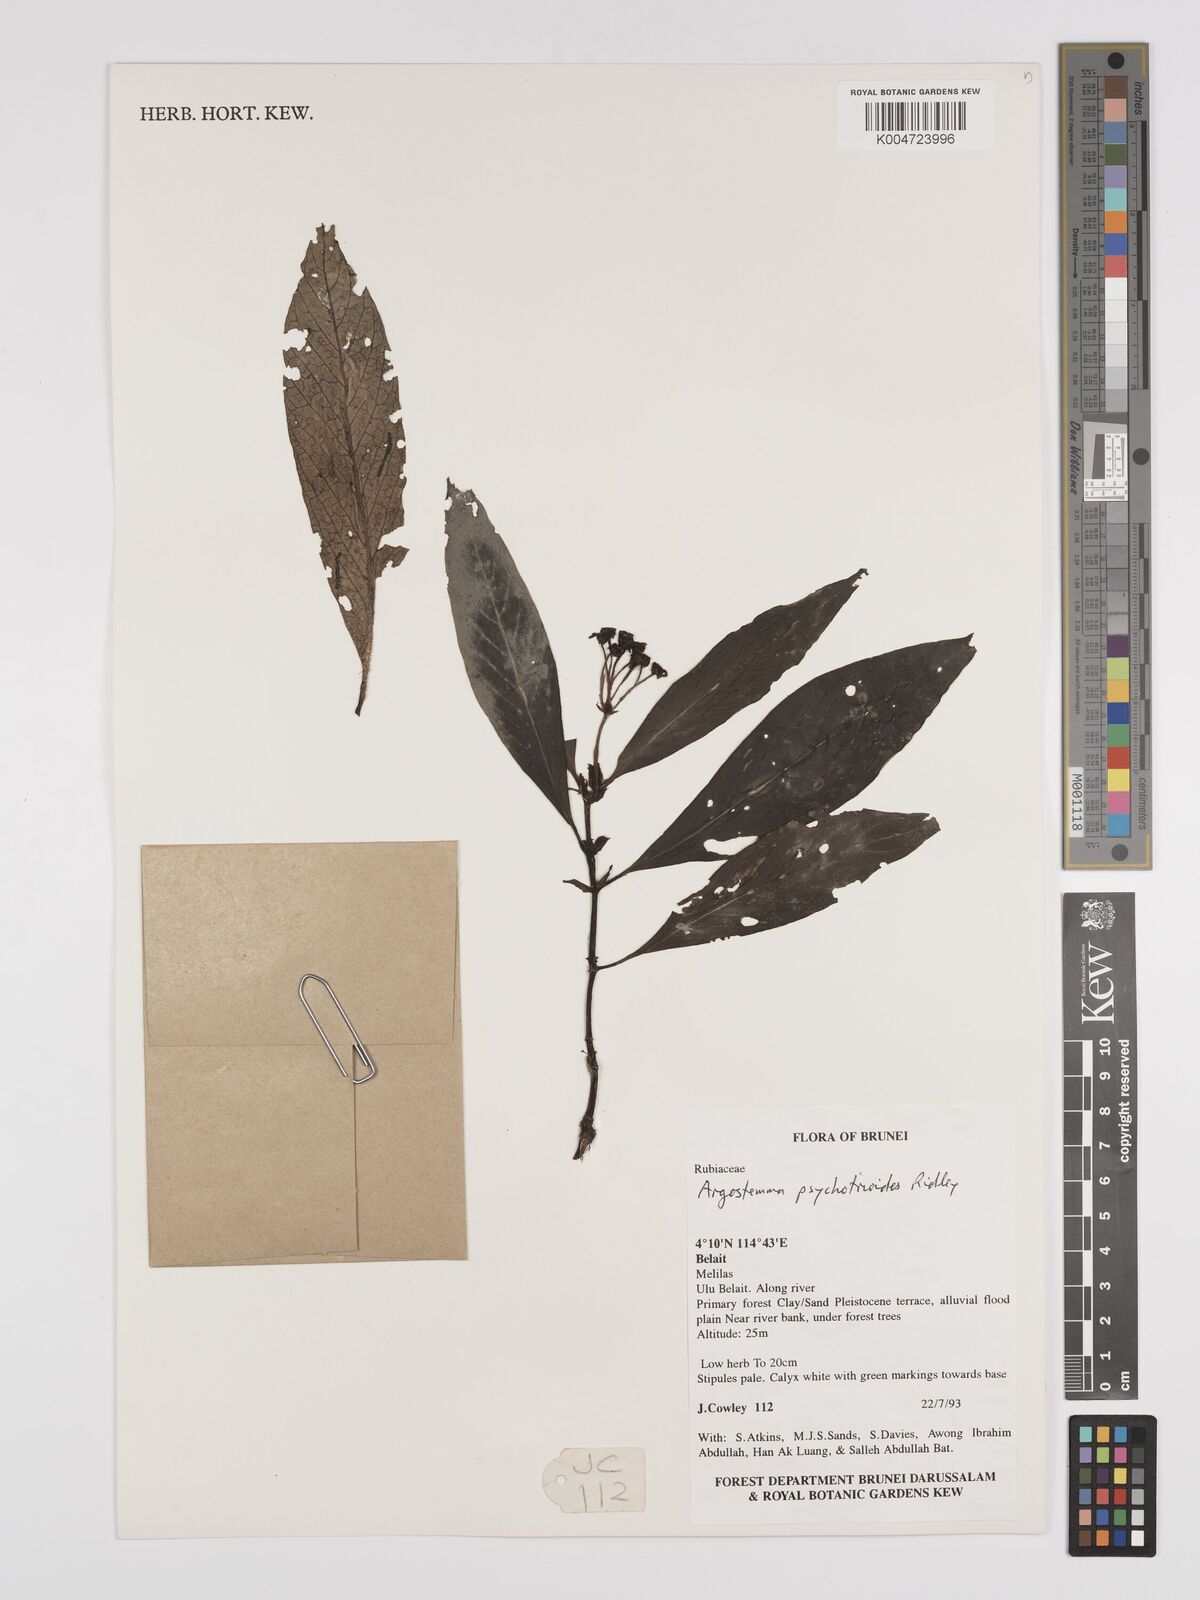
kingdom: Plantae
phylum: Tracheophyta
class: Magnoliopsida
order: Gentianales
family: Rubiaceae
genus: Argostemma
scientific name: Argostemma psychotrioides
